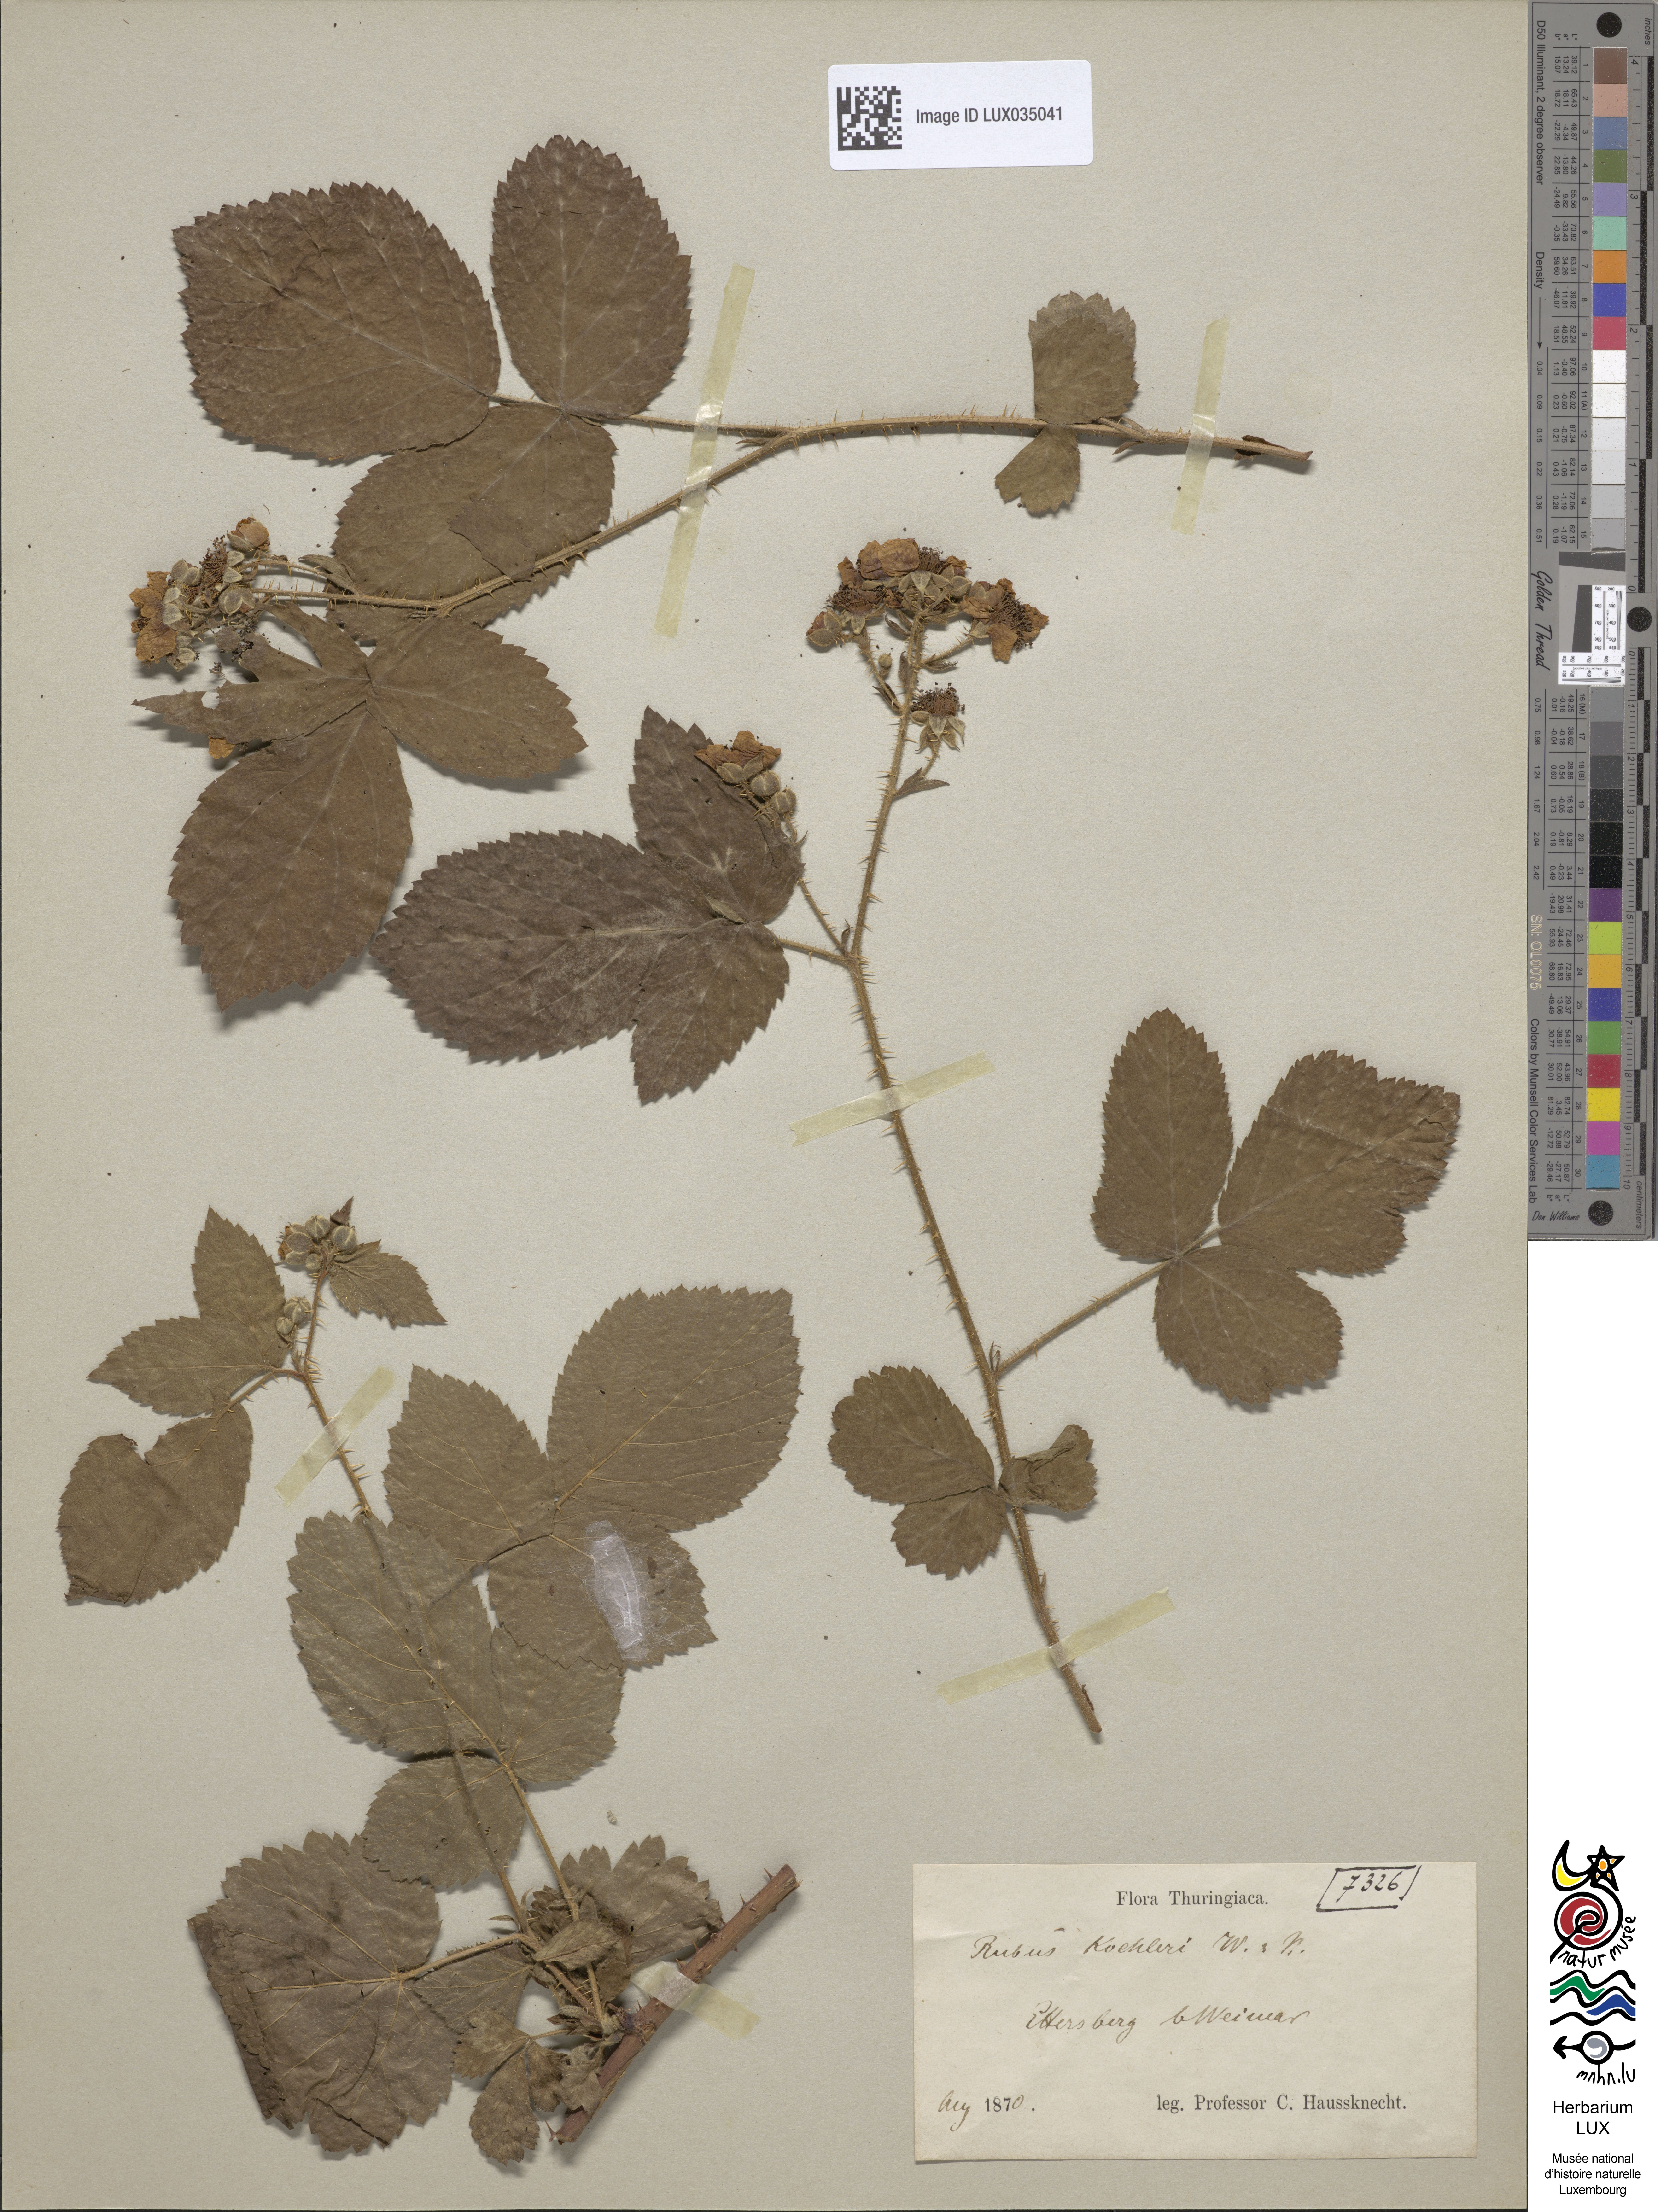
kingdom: Plantae
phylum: Tracheophyta
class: Magnoliopsida
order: Rosales
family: Rosaceae
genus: Rubus
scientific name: Rubus koehleri
